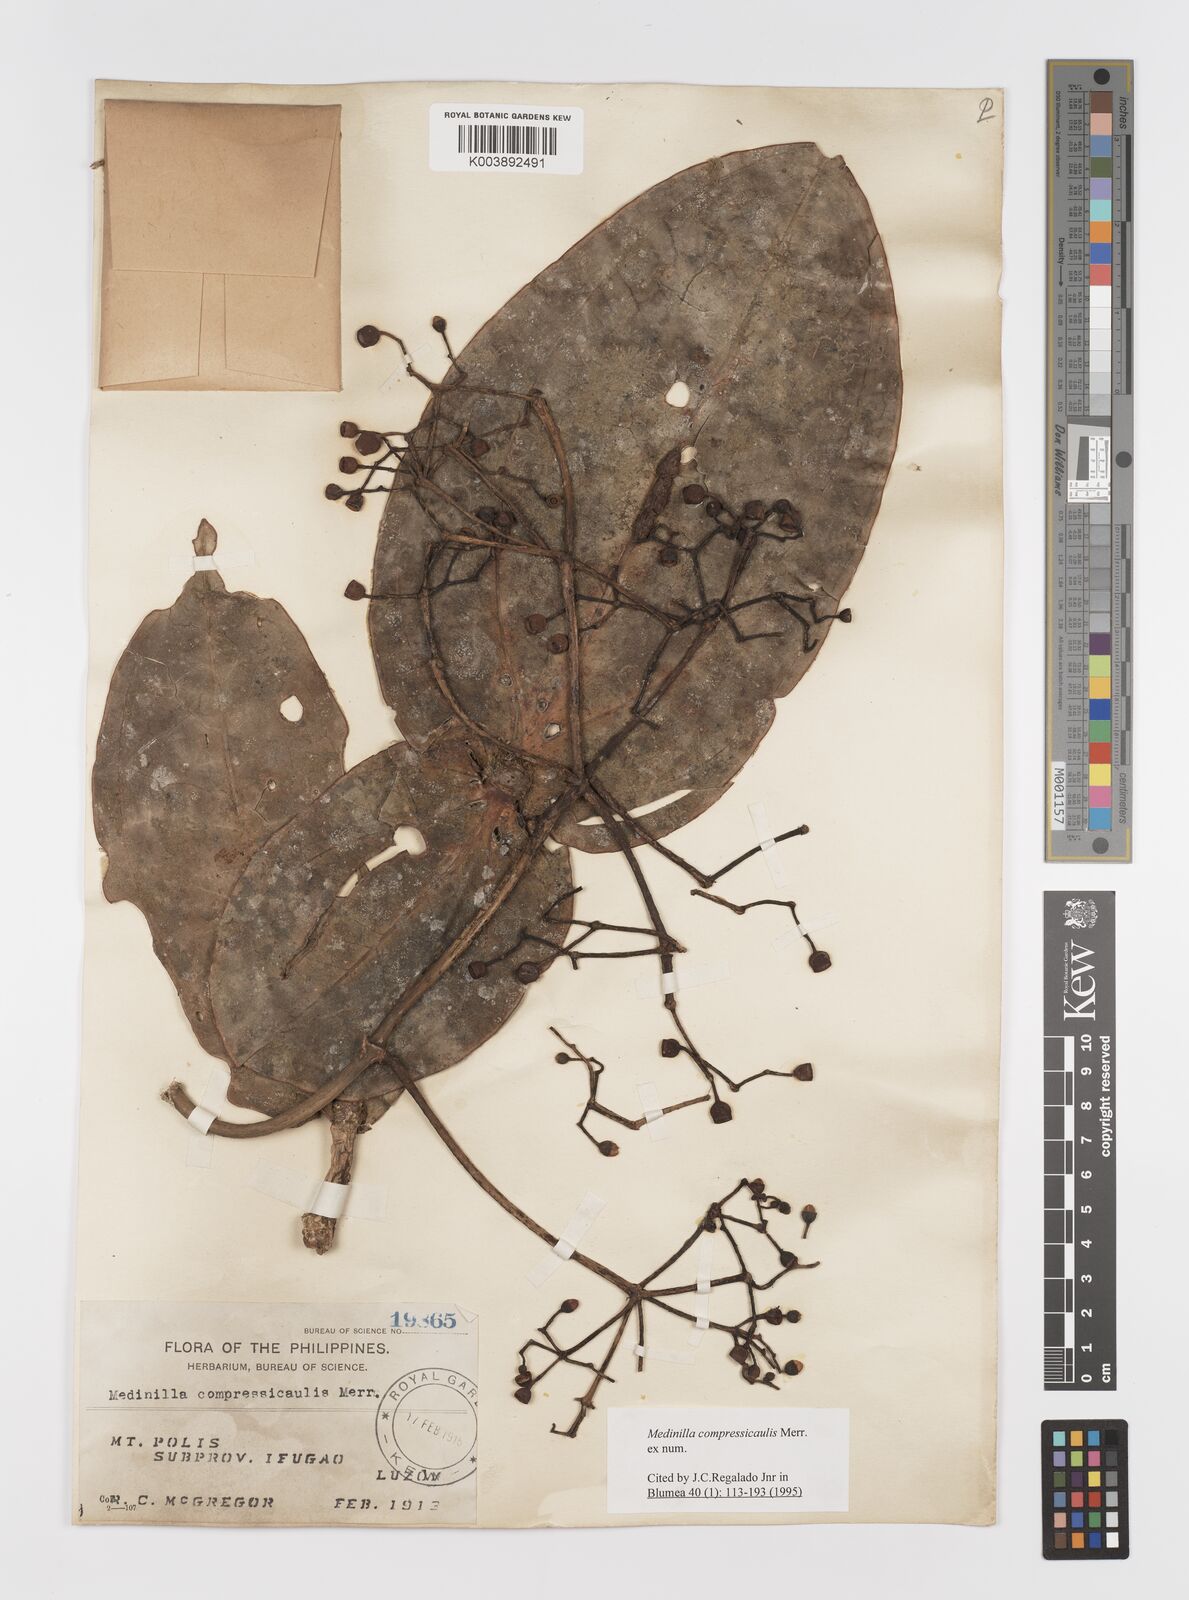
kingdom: Plantae
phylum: Tracheophyta
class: Magnoliopsida
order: Myrtales
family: Melastomataceae
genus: Medinilla
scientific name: Medinilla compressicaulis
